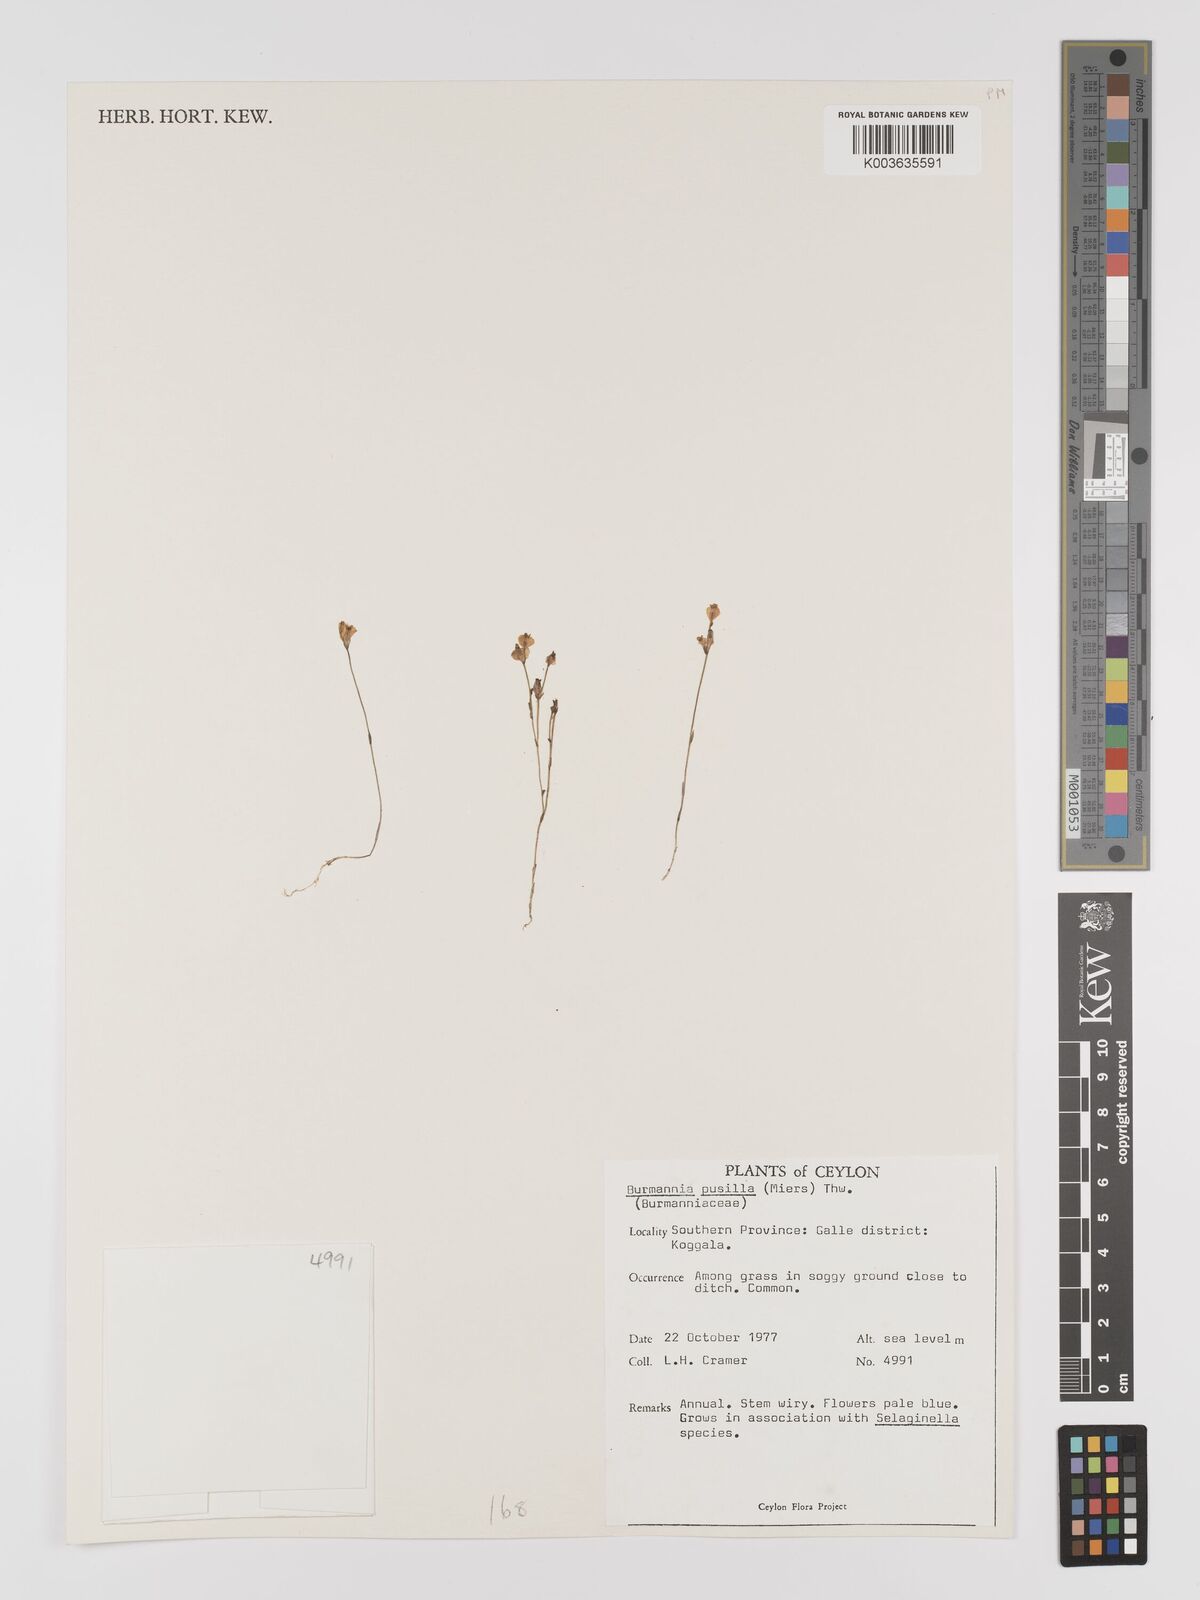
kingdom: Plantae
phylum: Tracheophyta
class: Liliopsida
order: Dioscoreales
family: Burmanniaceae
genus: Burmannia
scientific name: Burmannia pusilla
